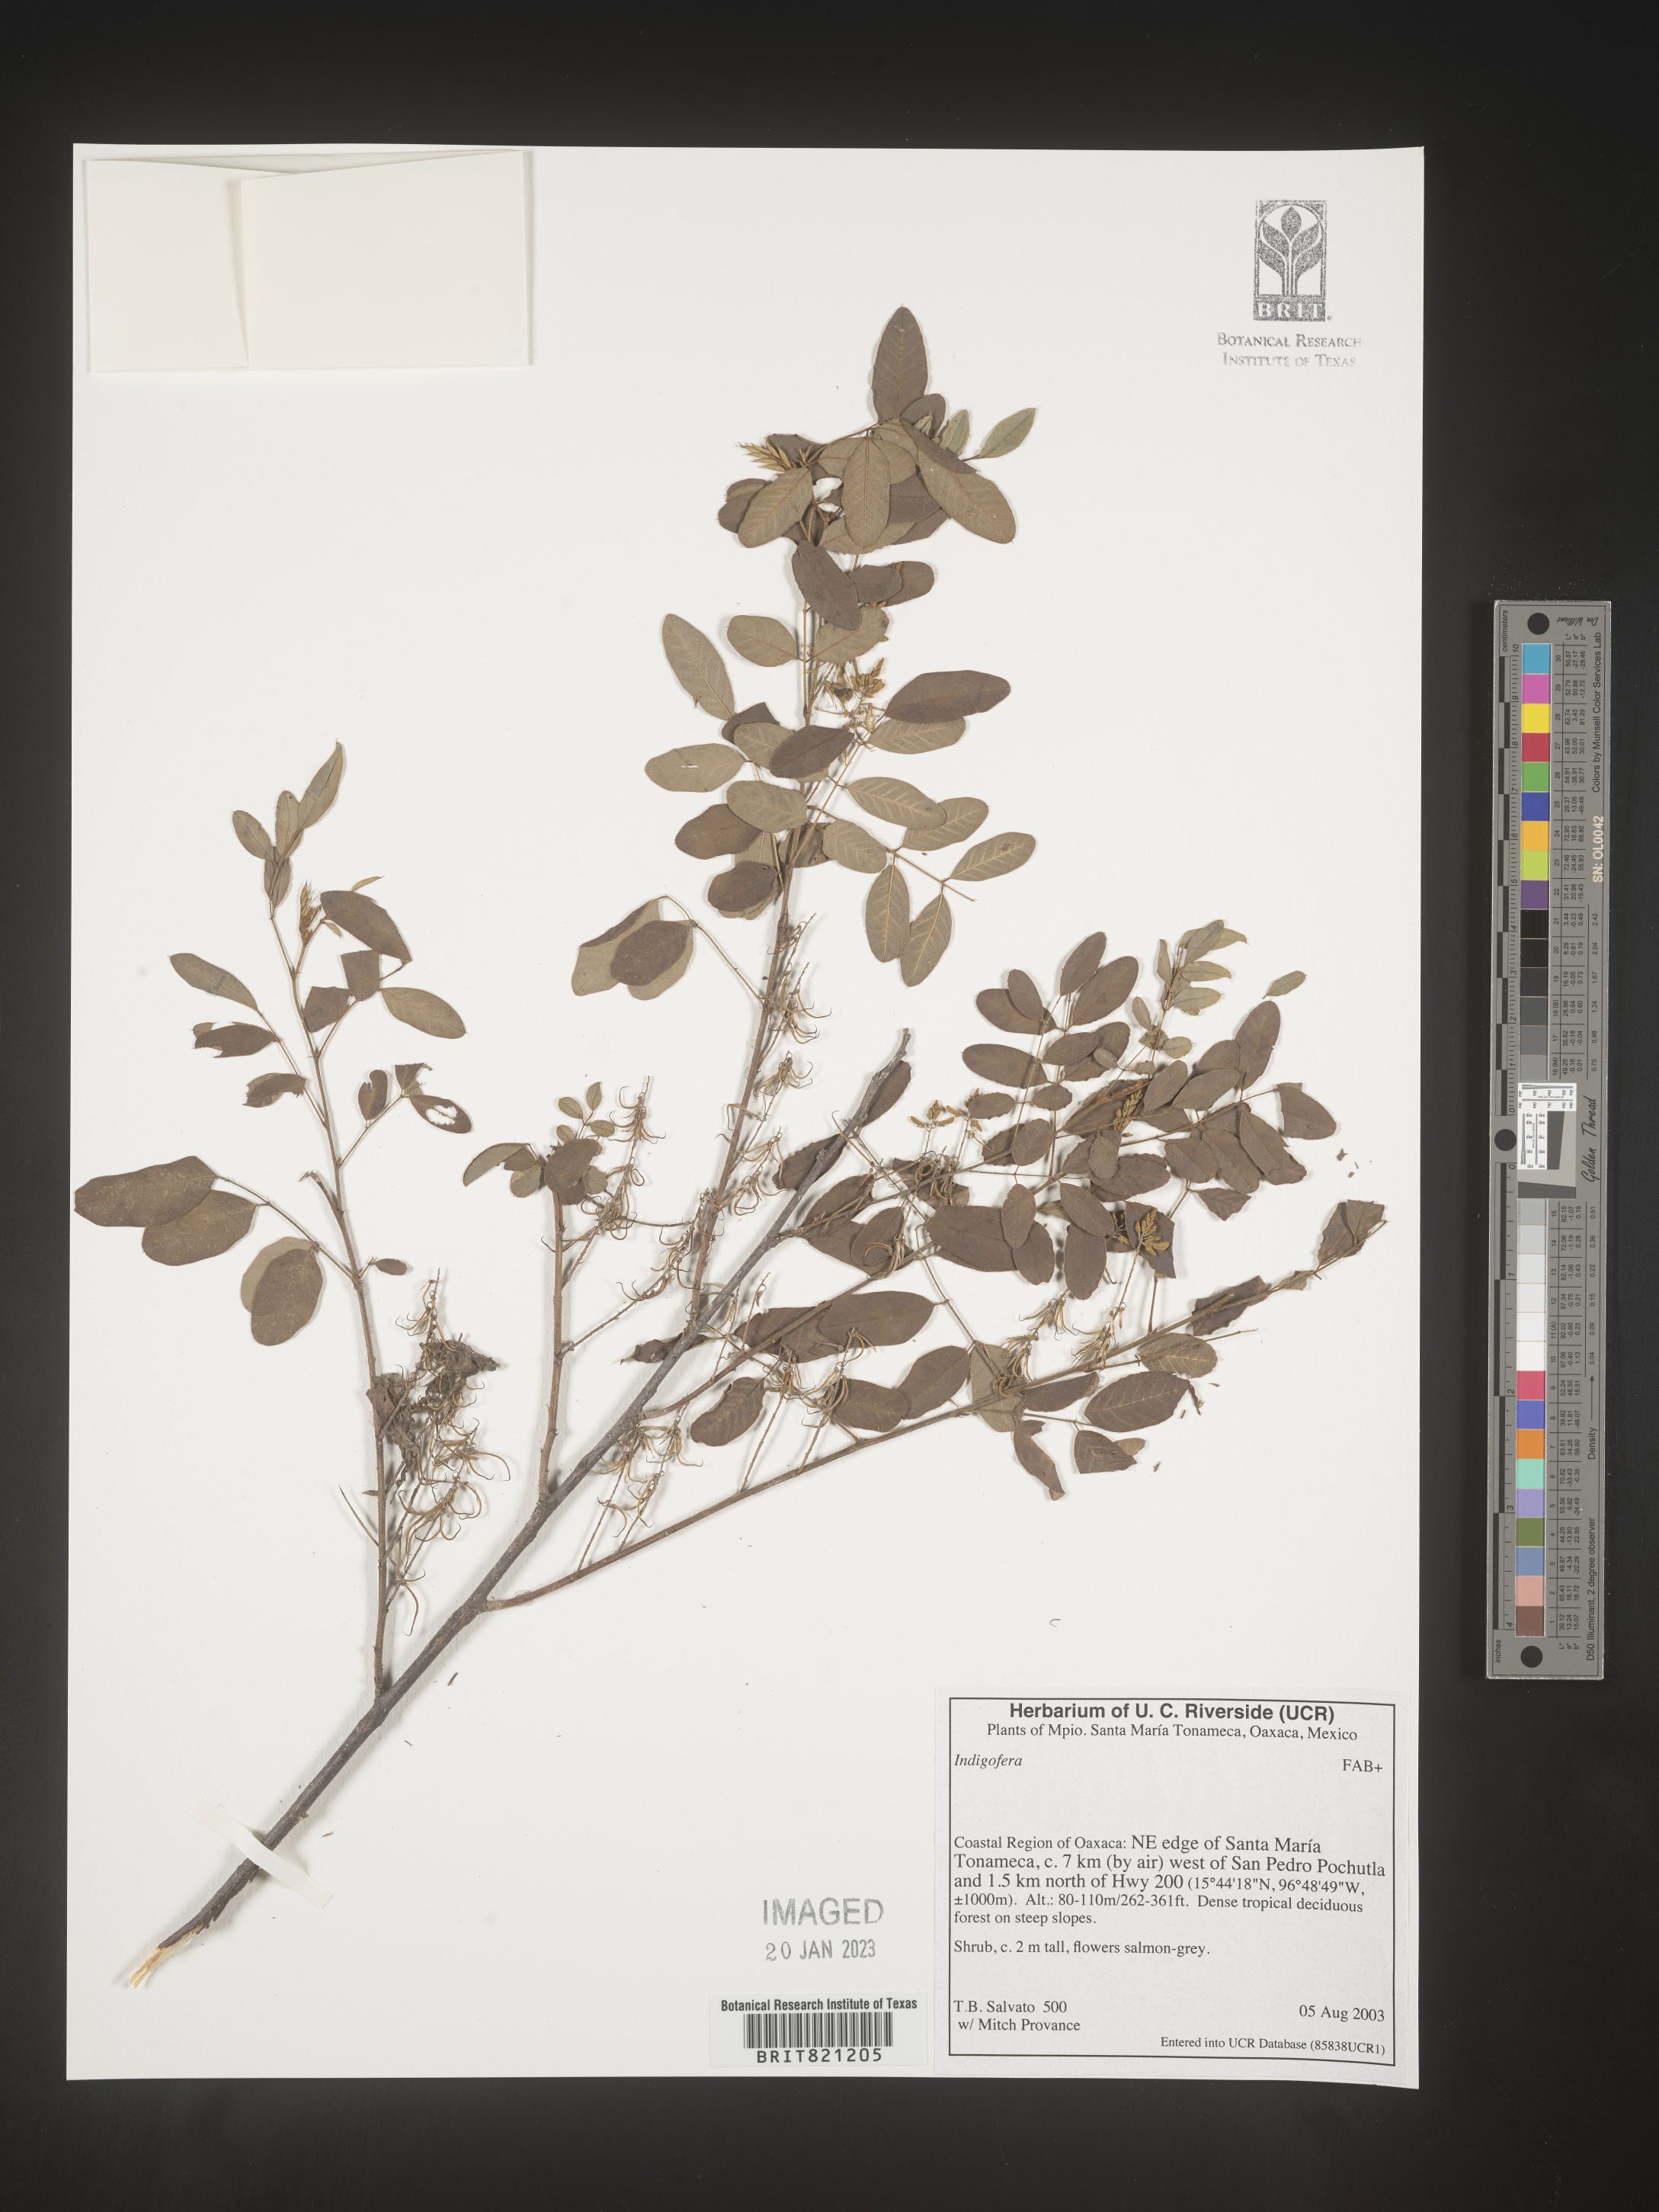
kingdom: Plantae
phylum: Tracheophyta
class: Magnoliopsida
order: Fabales
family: Fabaceae
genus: Indigofera
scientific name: Indigofera
